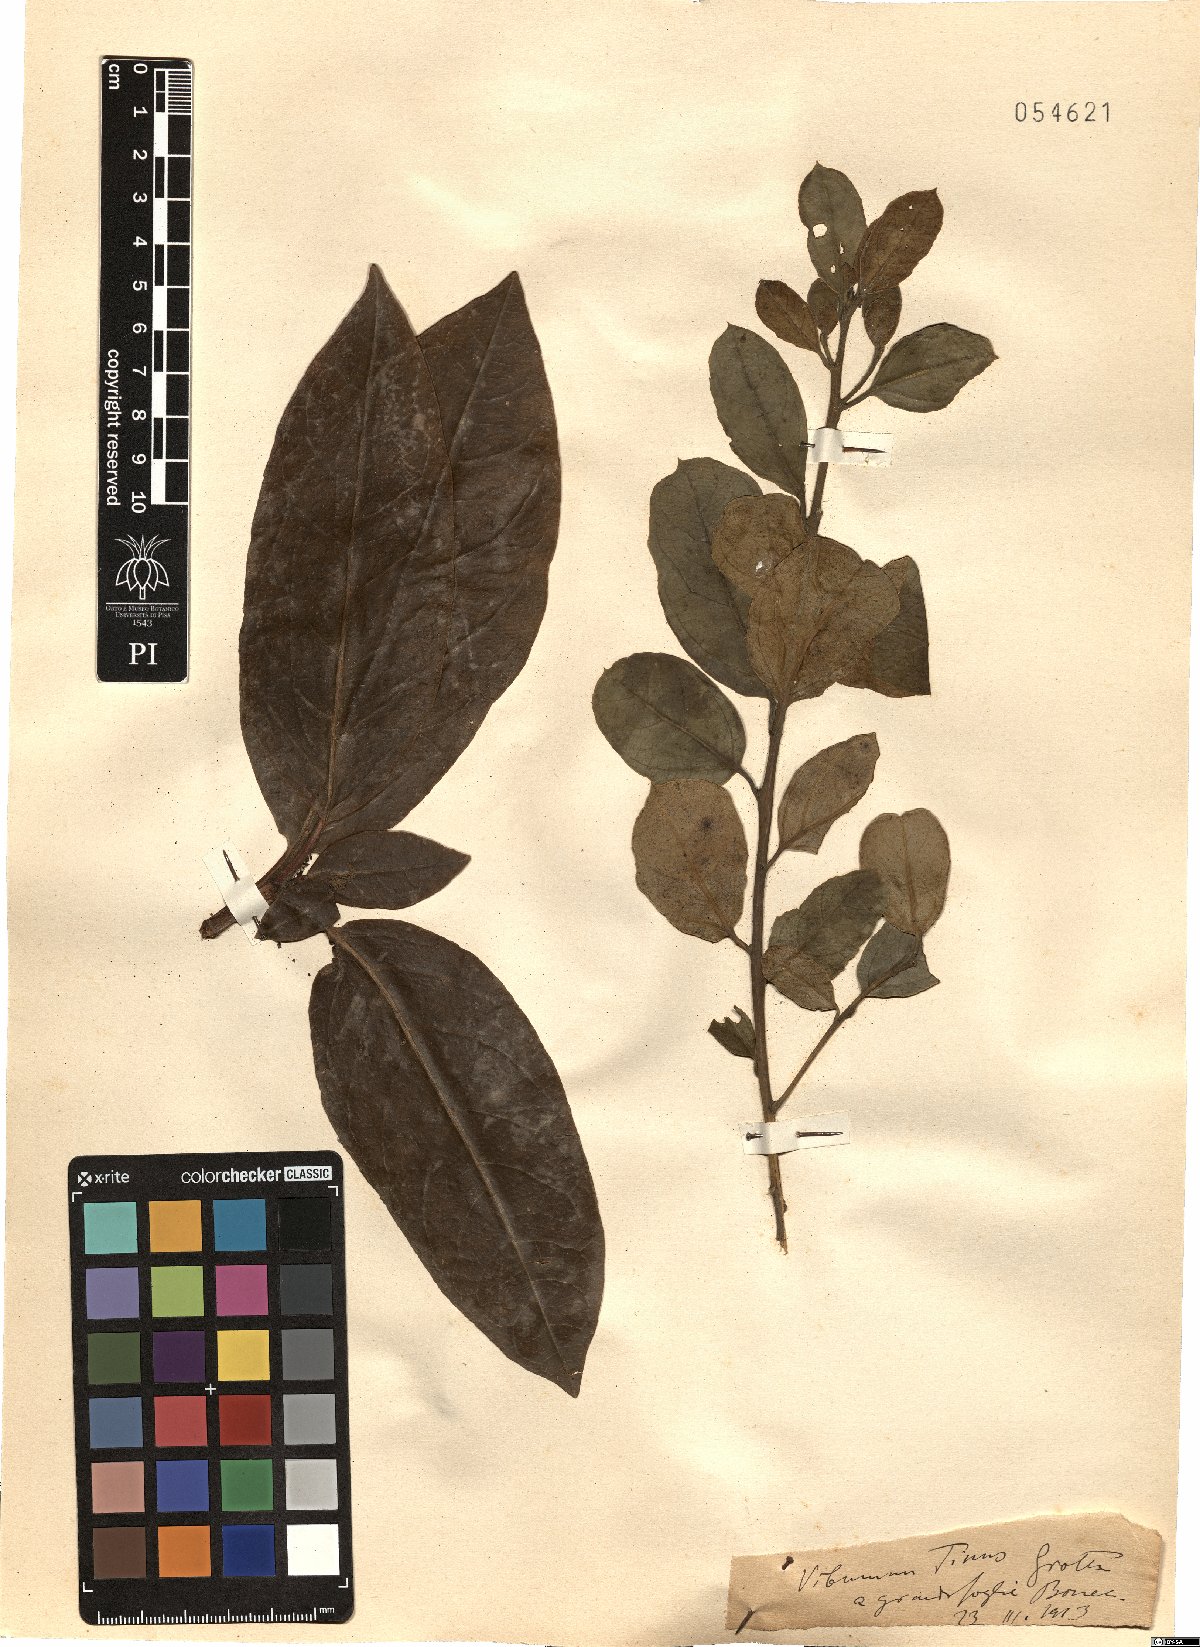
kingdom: Plantae
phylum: Tracheophyta
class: Magnoliopsida
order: Dipsacales
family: Viburnaceae
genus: Viburnum
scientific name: Viburnum tinus
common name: Laurustinus
